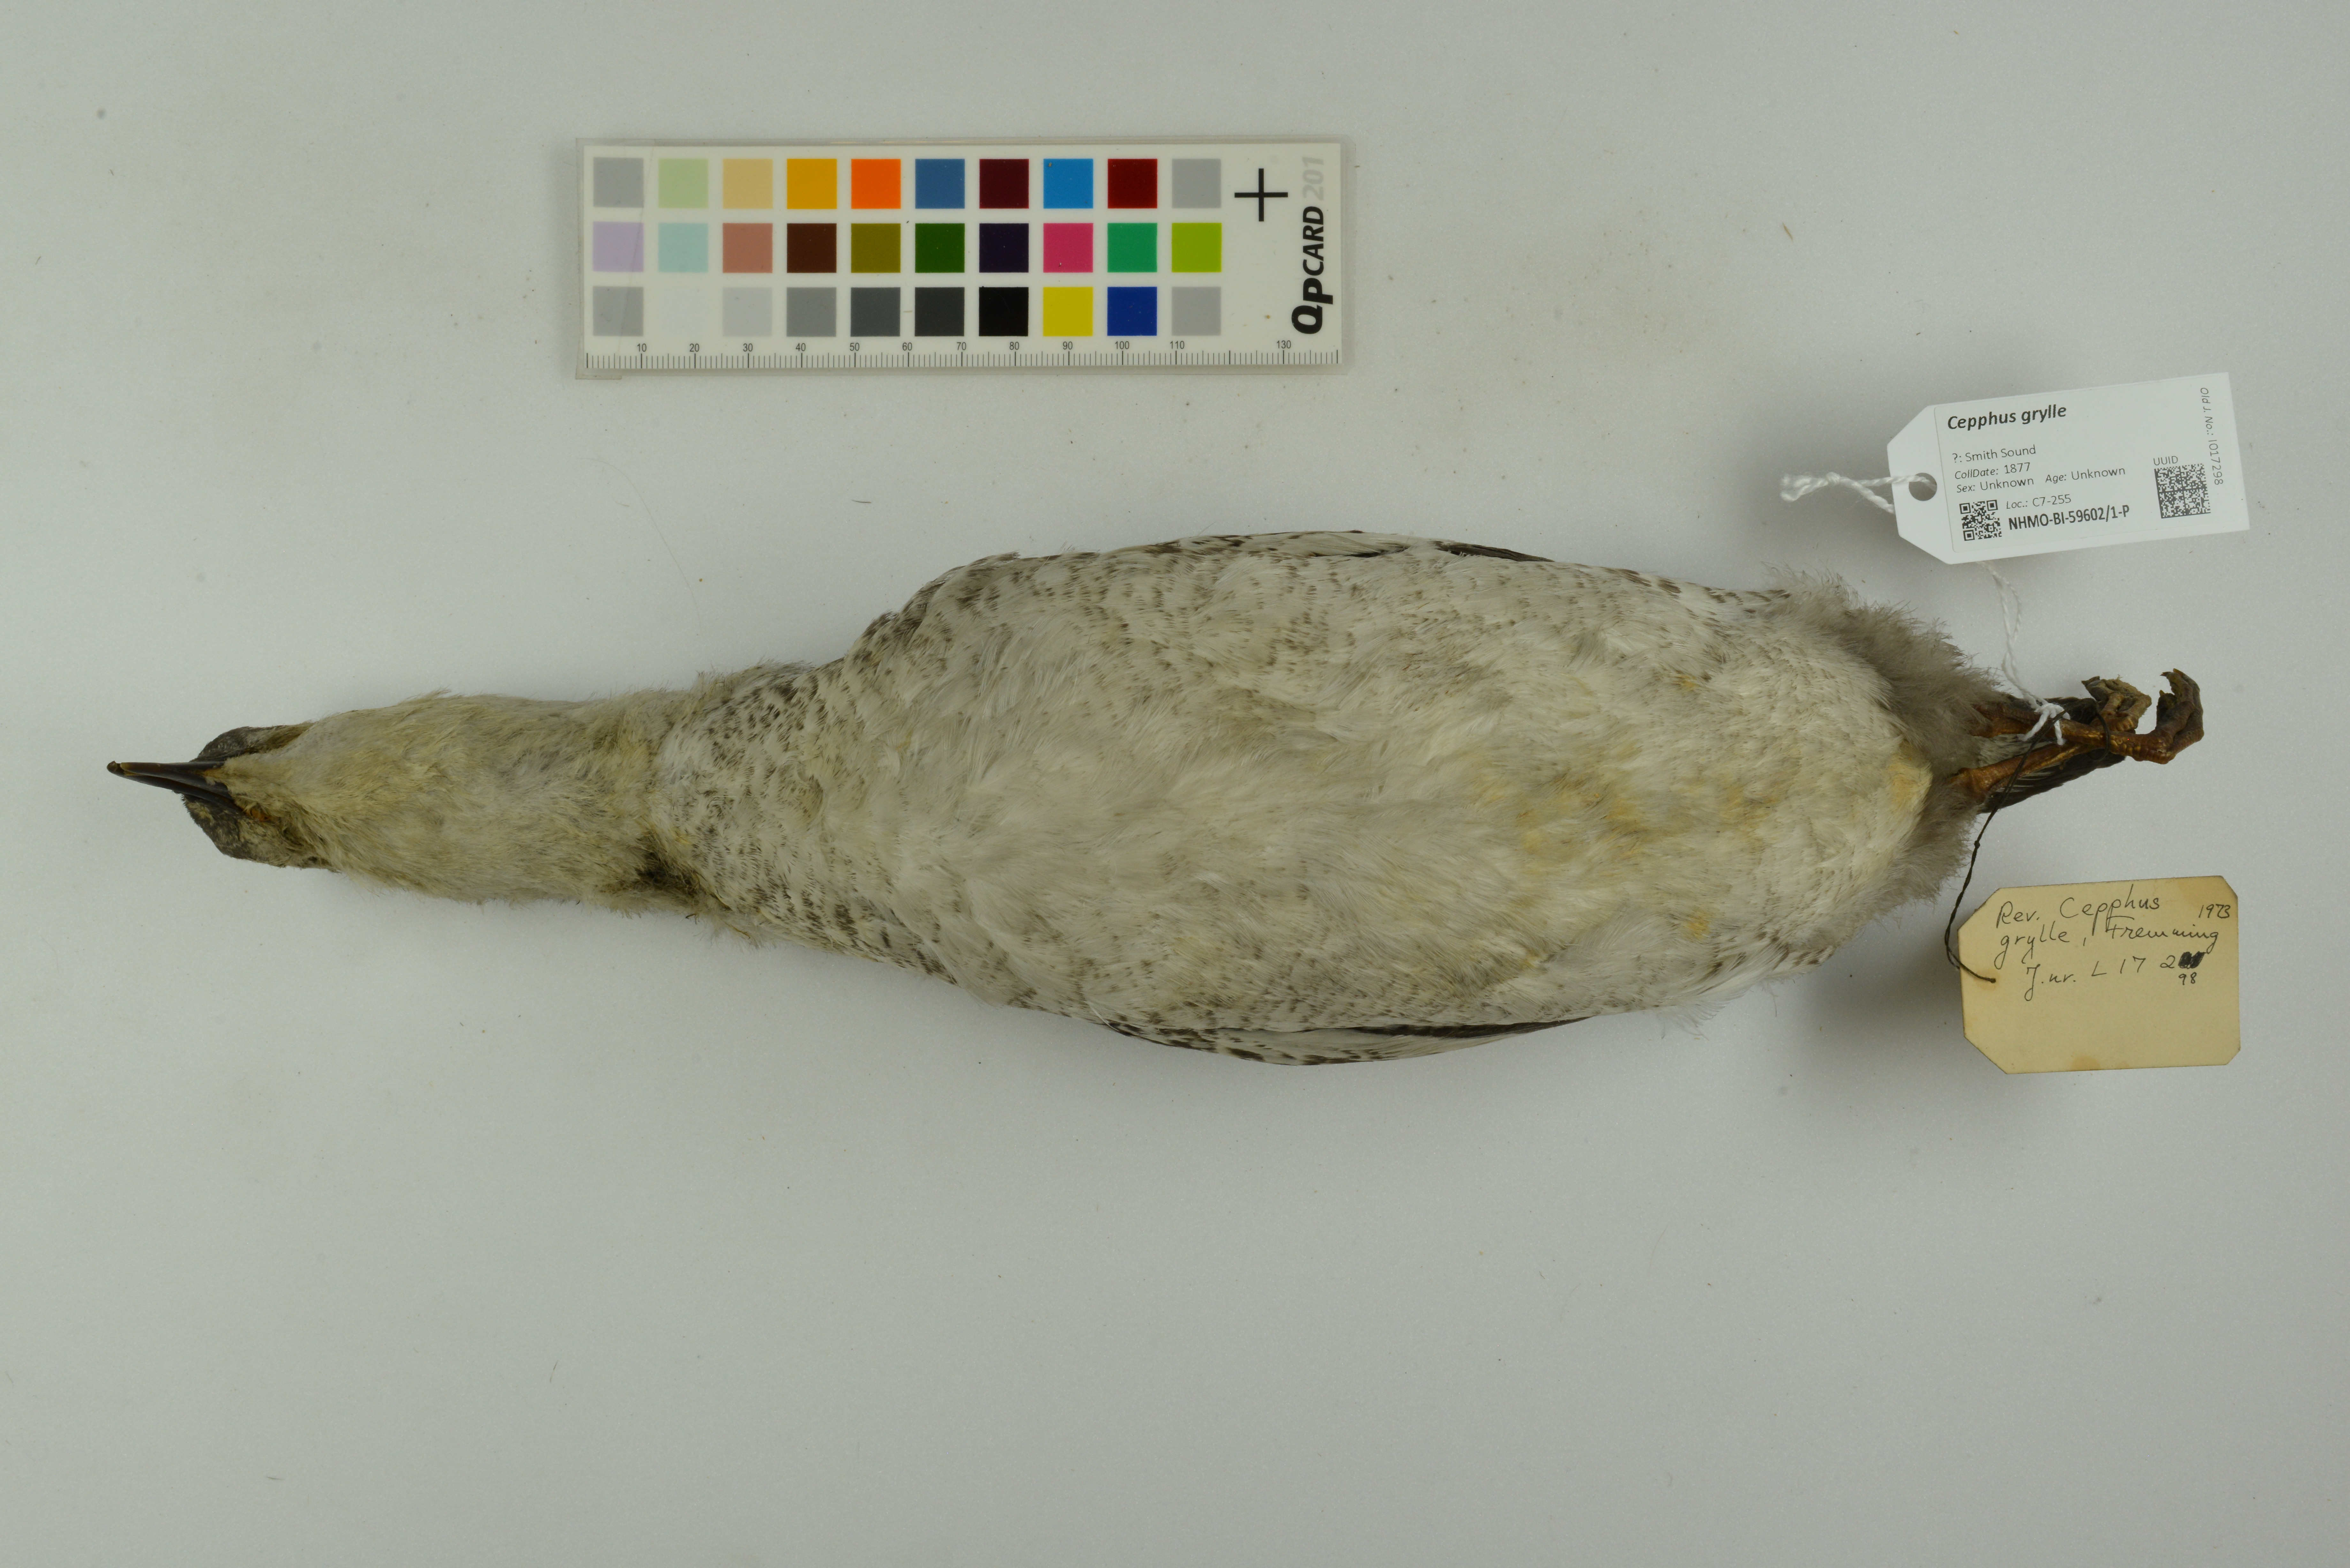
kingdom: Animalia
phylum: Chordata
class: Aves
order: Charadriiformes
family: Alcidae
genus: Cepphus
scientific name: Cepphus grylle
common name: Black guillemot
